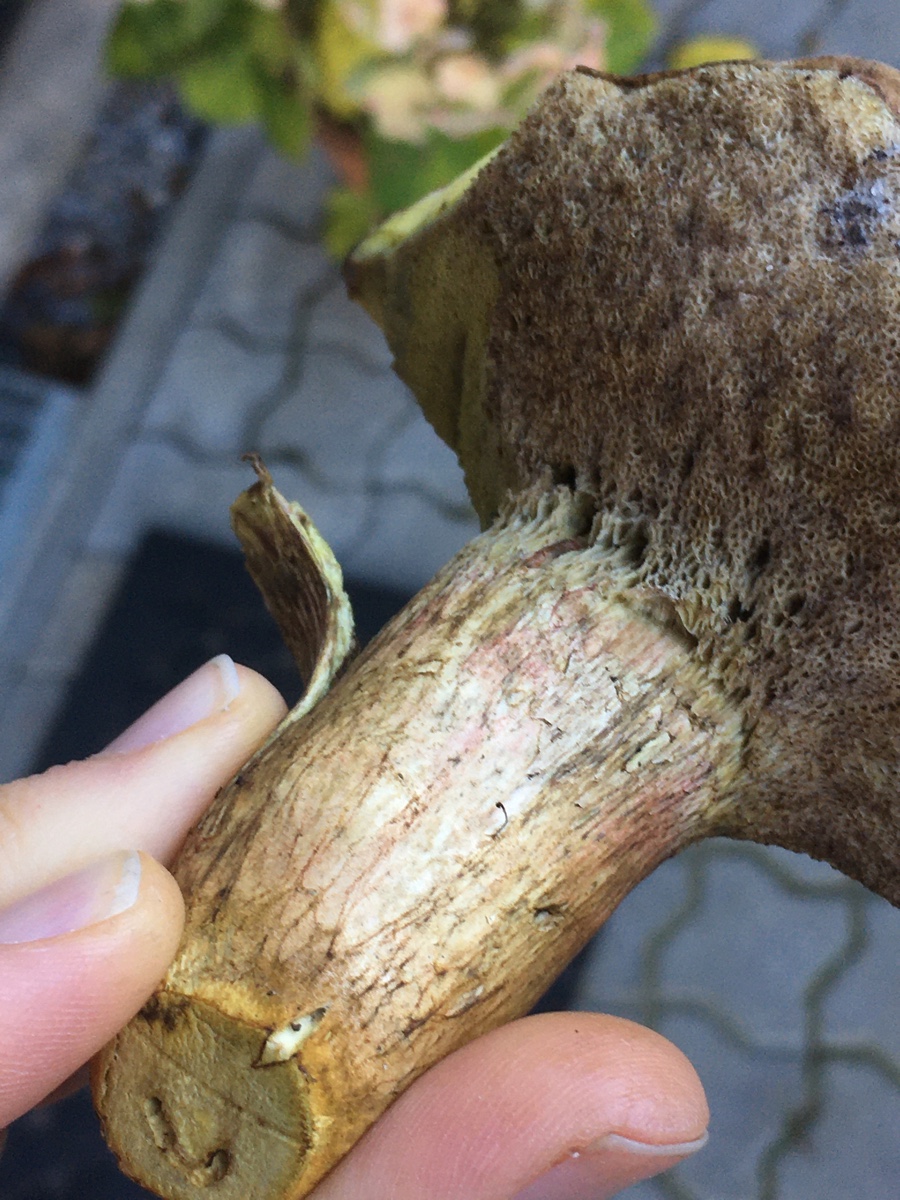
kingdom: Fungi
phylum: Basidiomycota
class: Agaricomycetes
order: Boletales
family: Boletaceae
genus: Xerocomus
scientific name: Xerocomus
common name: filtrørhat
